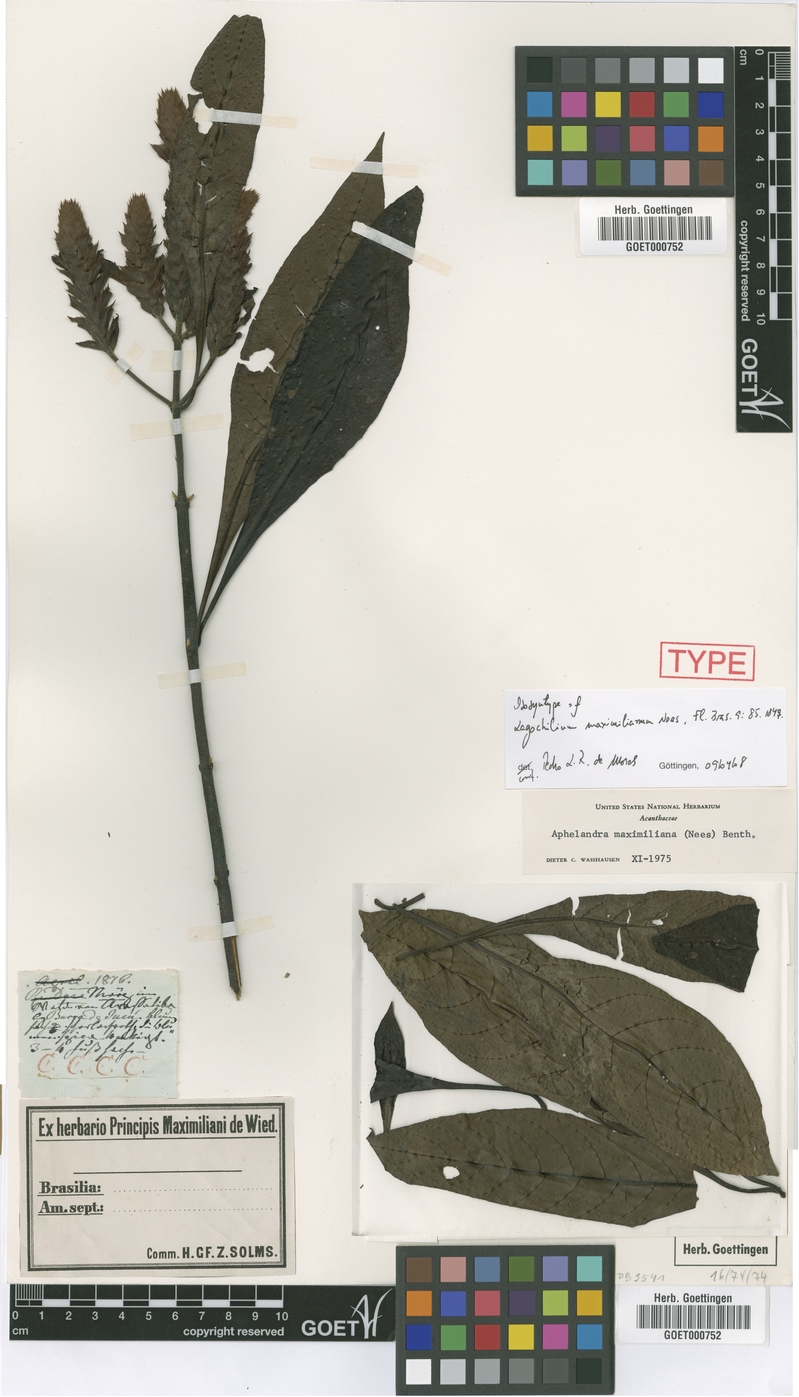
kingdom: Plantae
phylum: Tracheophyta
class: Magnoliopsida
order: Lamiales
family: Acanthaceae
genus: Aphelandra
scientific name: Aphelandra maximiliana
